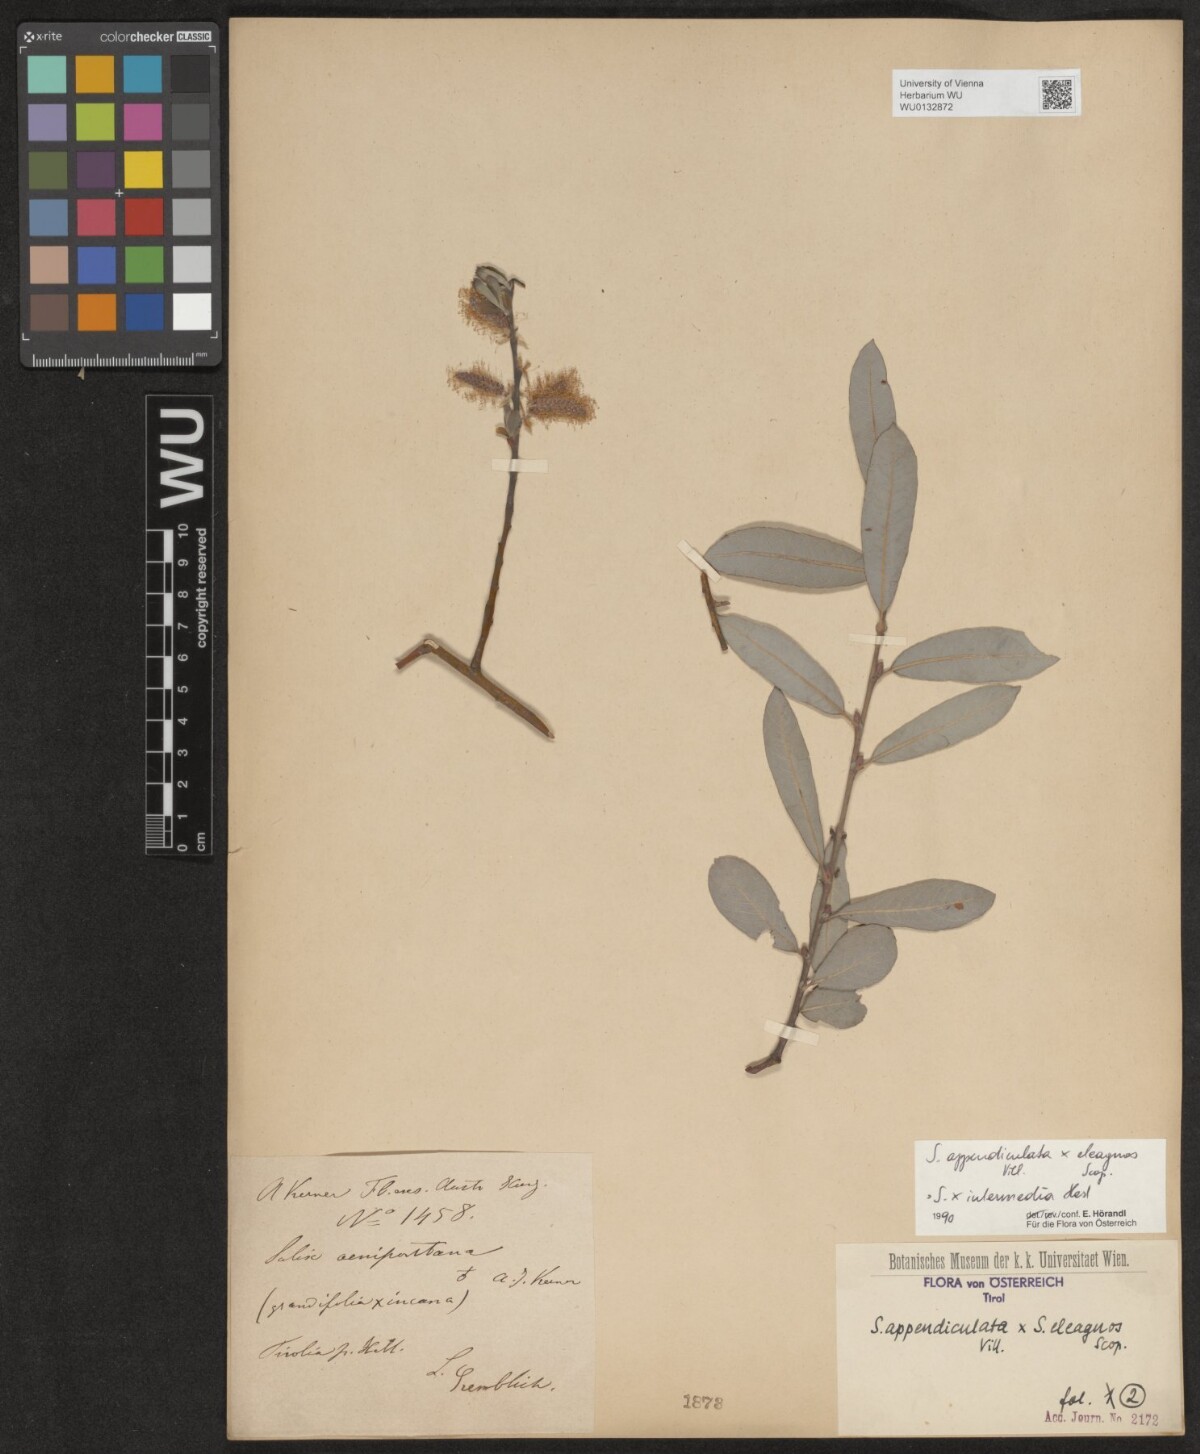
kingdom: Plantae
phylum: Tracheophyta
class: Magnoliopsida
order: Malpighiales
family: Salicaceae
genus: Salix
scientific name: Salix intermedia
